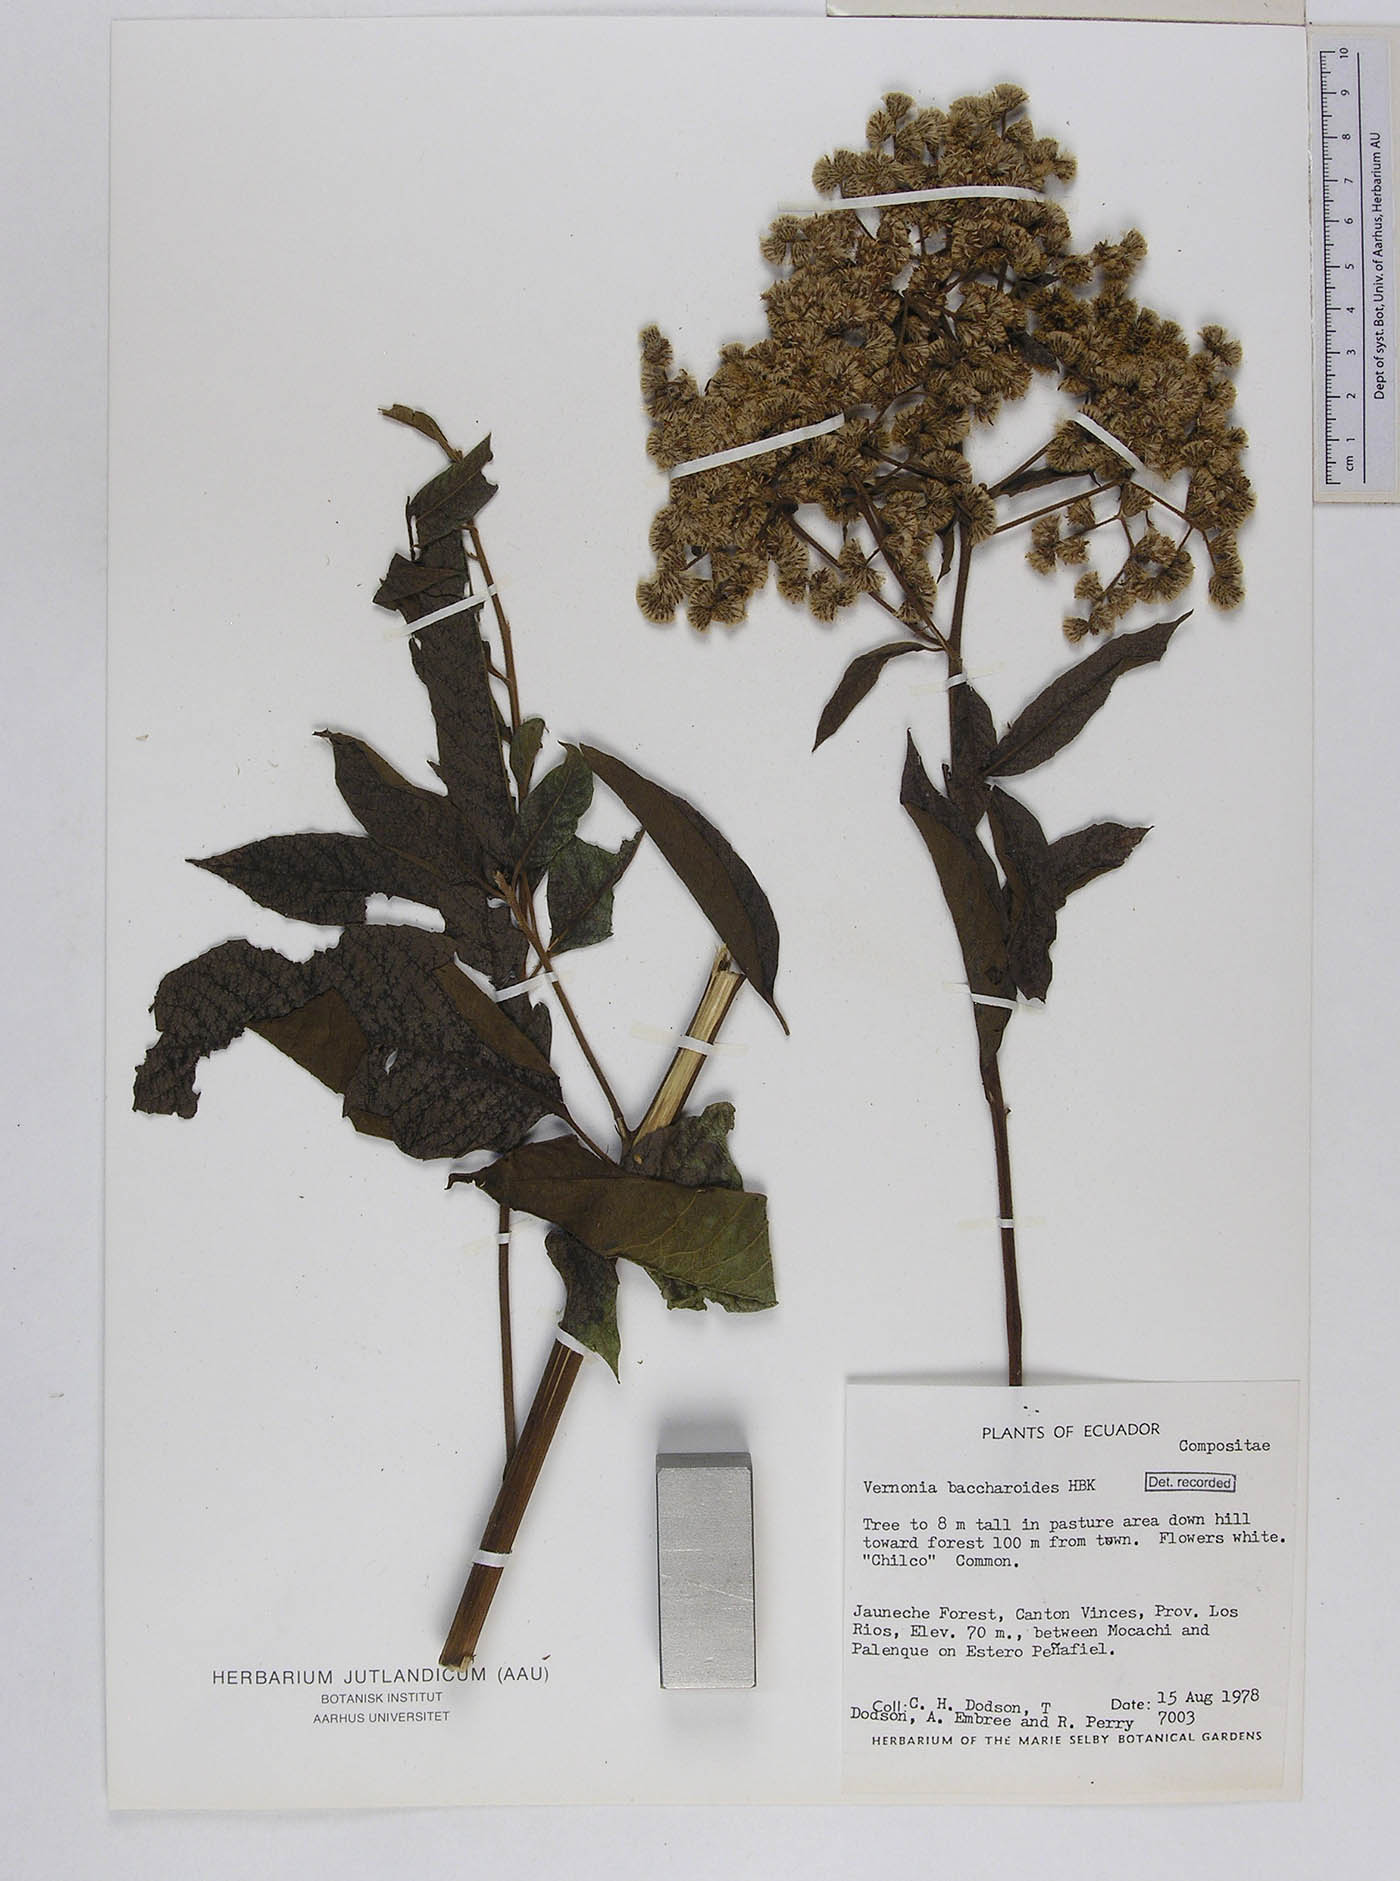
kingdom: Plantae
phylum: Tracheophyta
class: Magnoliopsida
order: Asterales
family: Asteraceae
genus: Vernonanthura
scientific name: Vernonanthura patens
